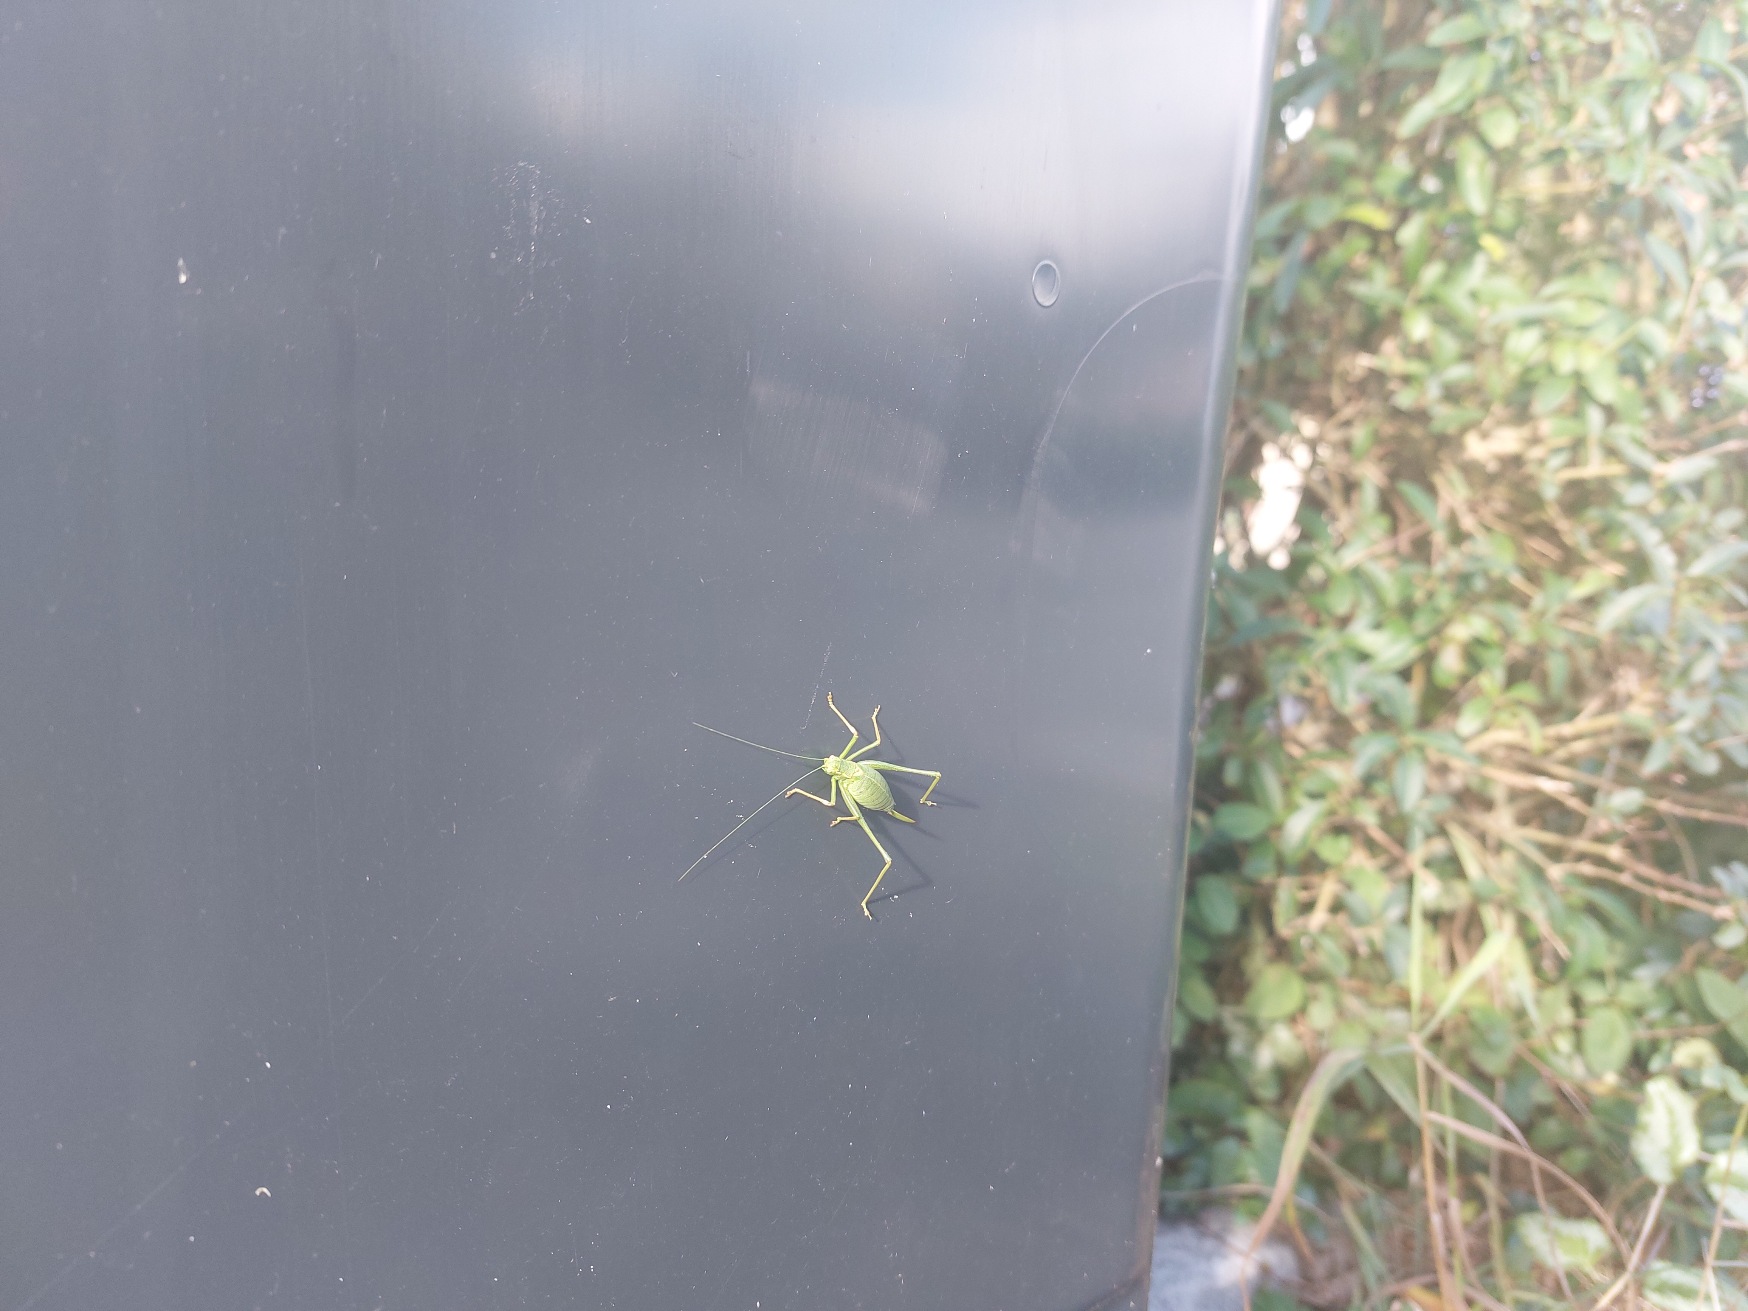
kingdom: Animalia
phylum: Arthropoda
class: Insecta
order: Orthoptera
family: Tettigoniidae
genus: Leptophyes
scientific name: Leptophyes punctatissima
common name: Krumknivgræshoppe
